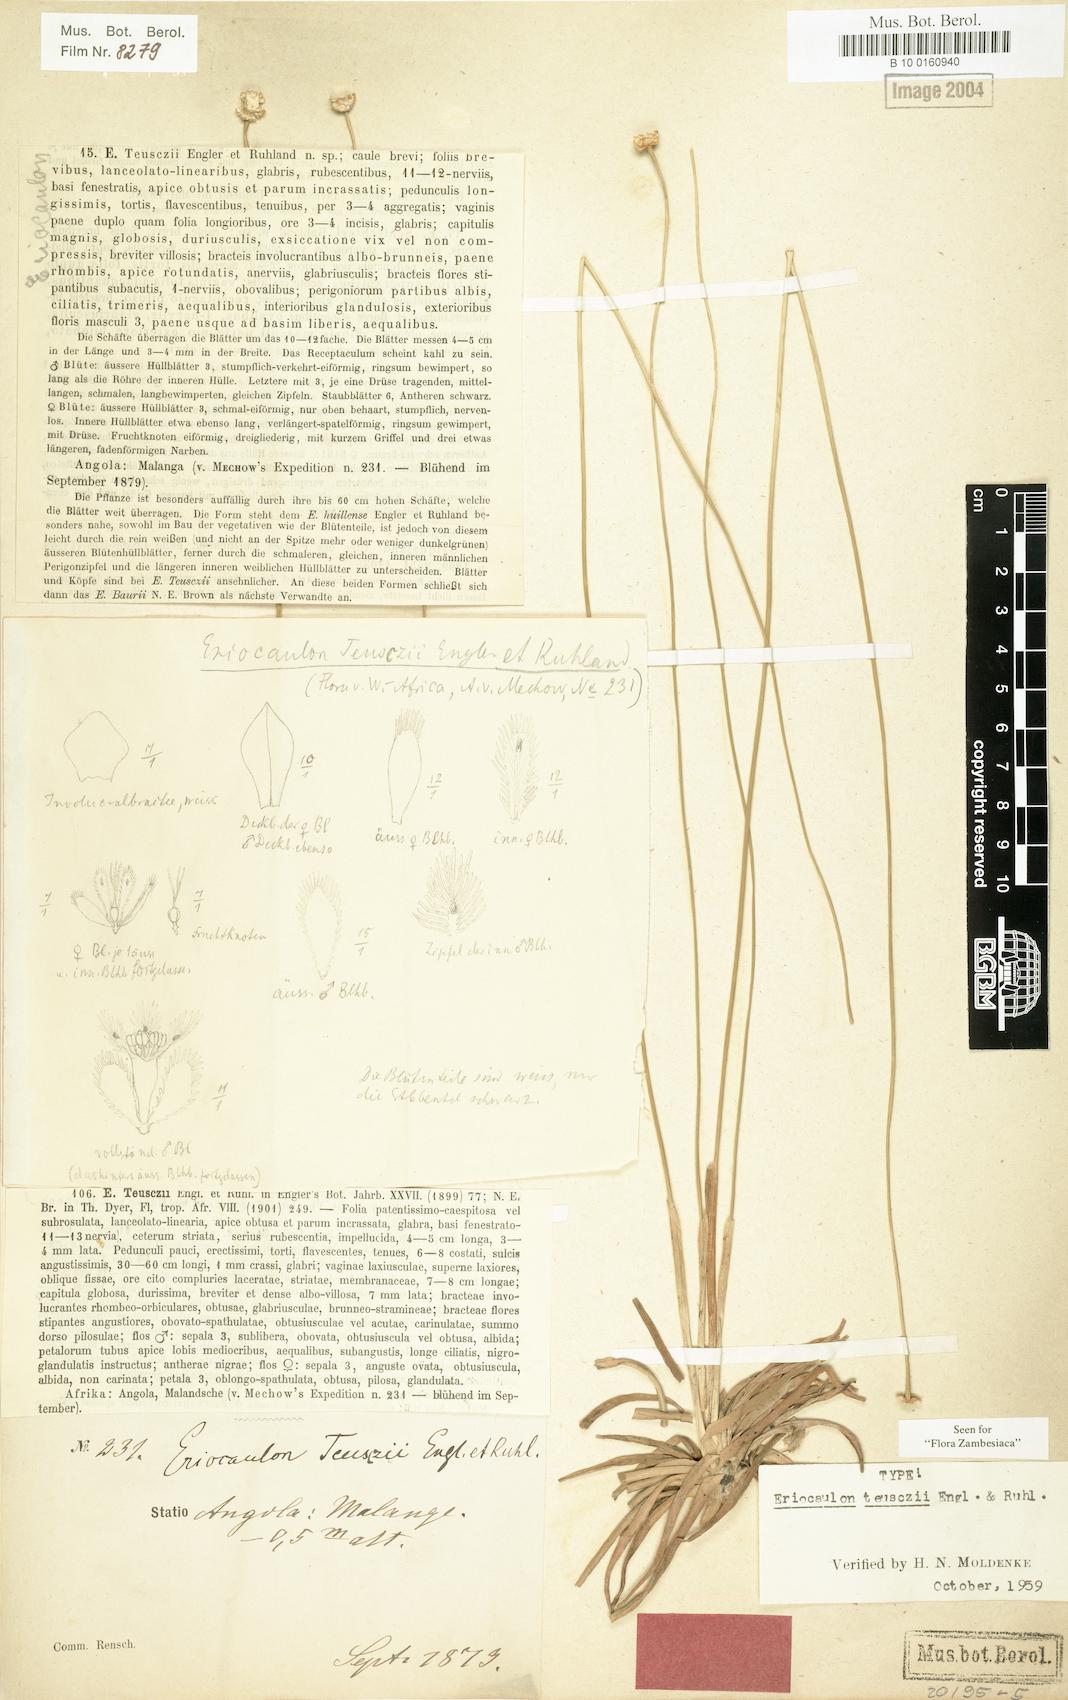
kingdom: Plantae
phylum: Tracheophyta
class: Liliopsida
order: Poales
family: Eriocaulaceae
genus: Eriocaulon
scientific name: Eriocaulon teusczii
